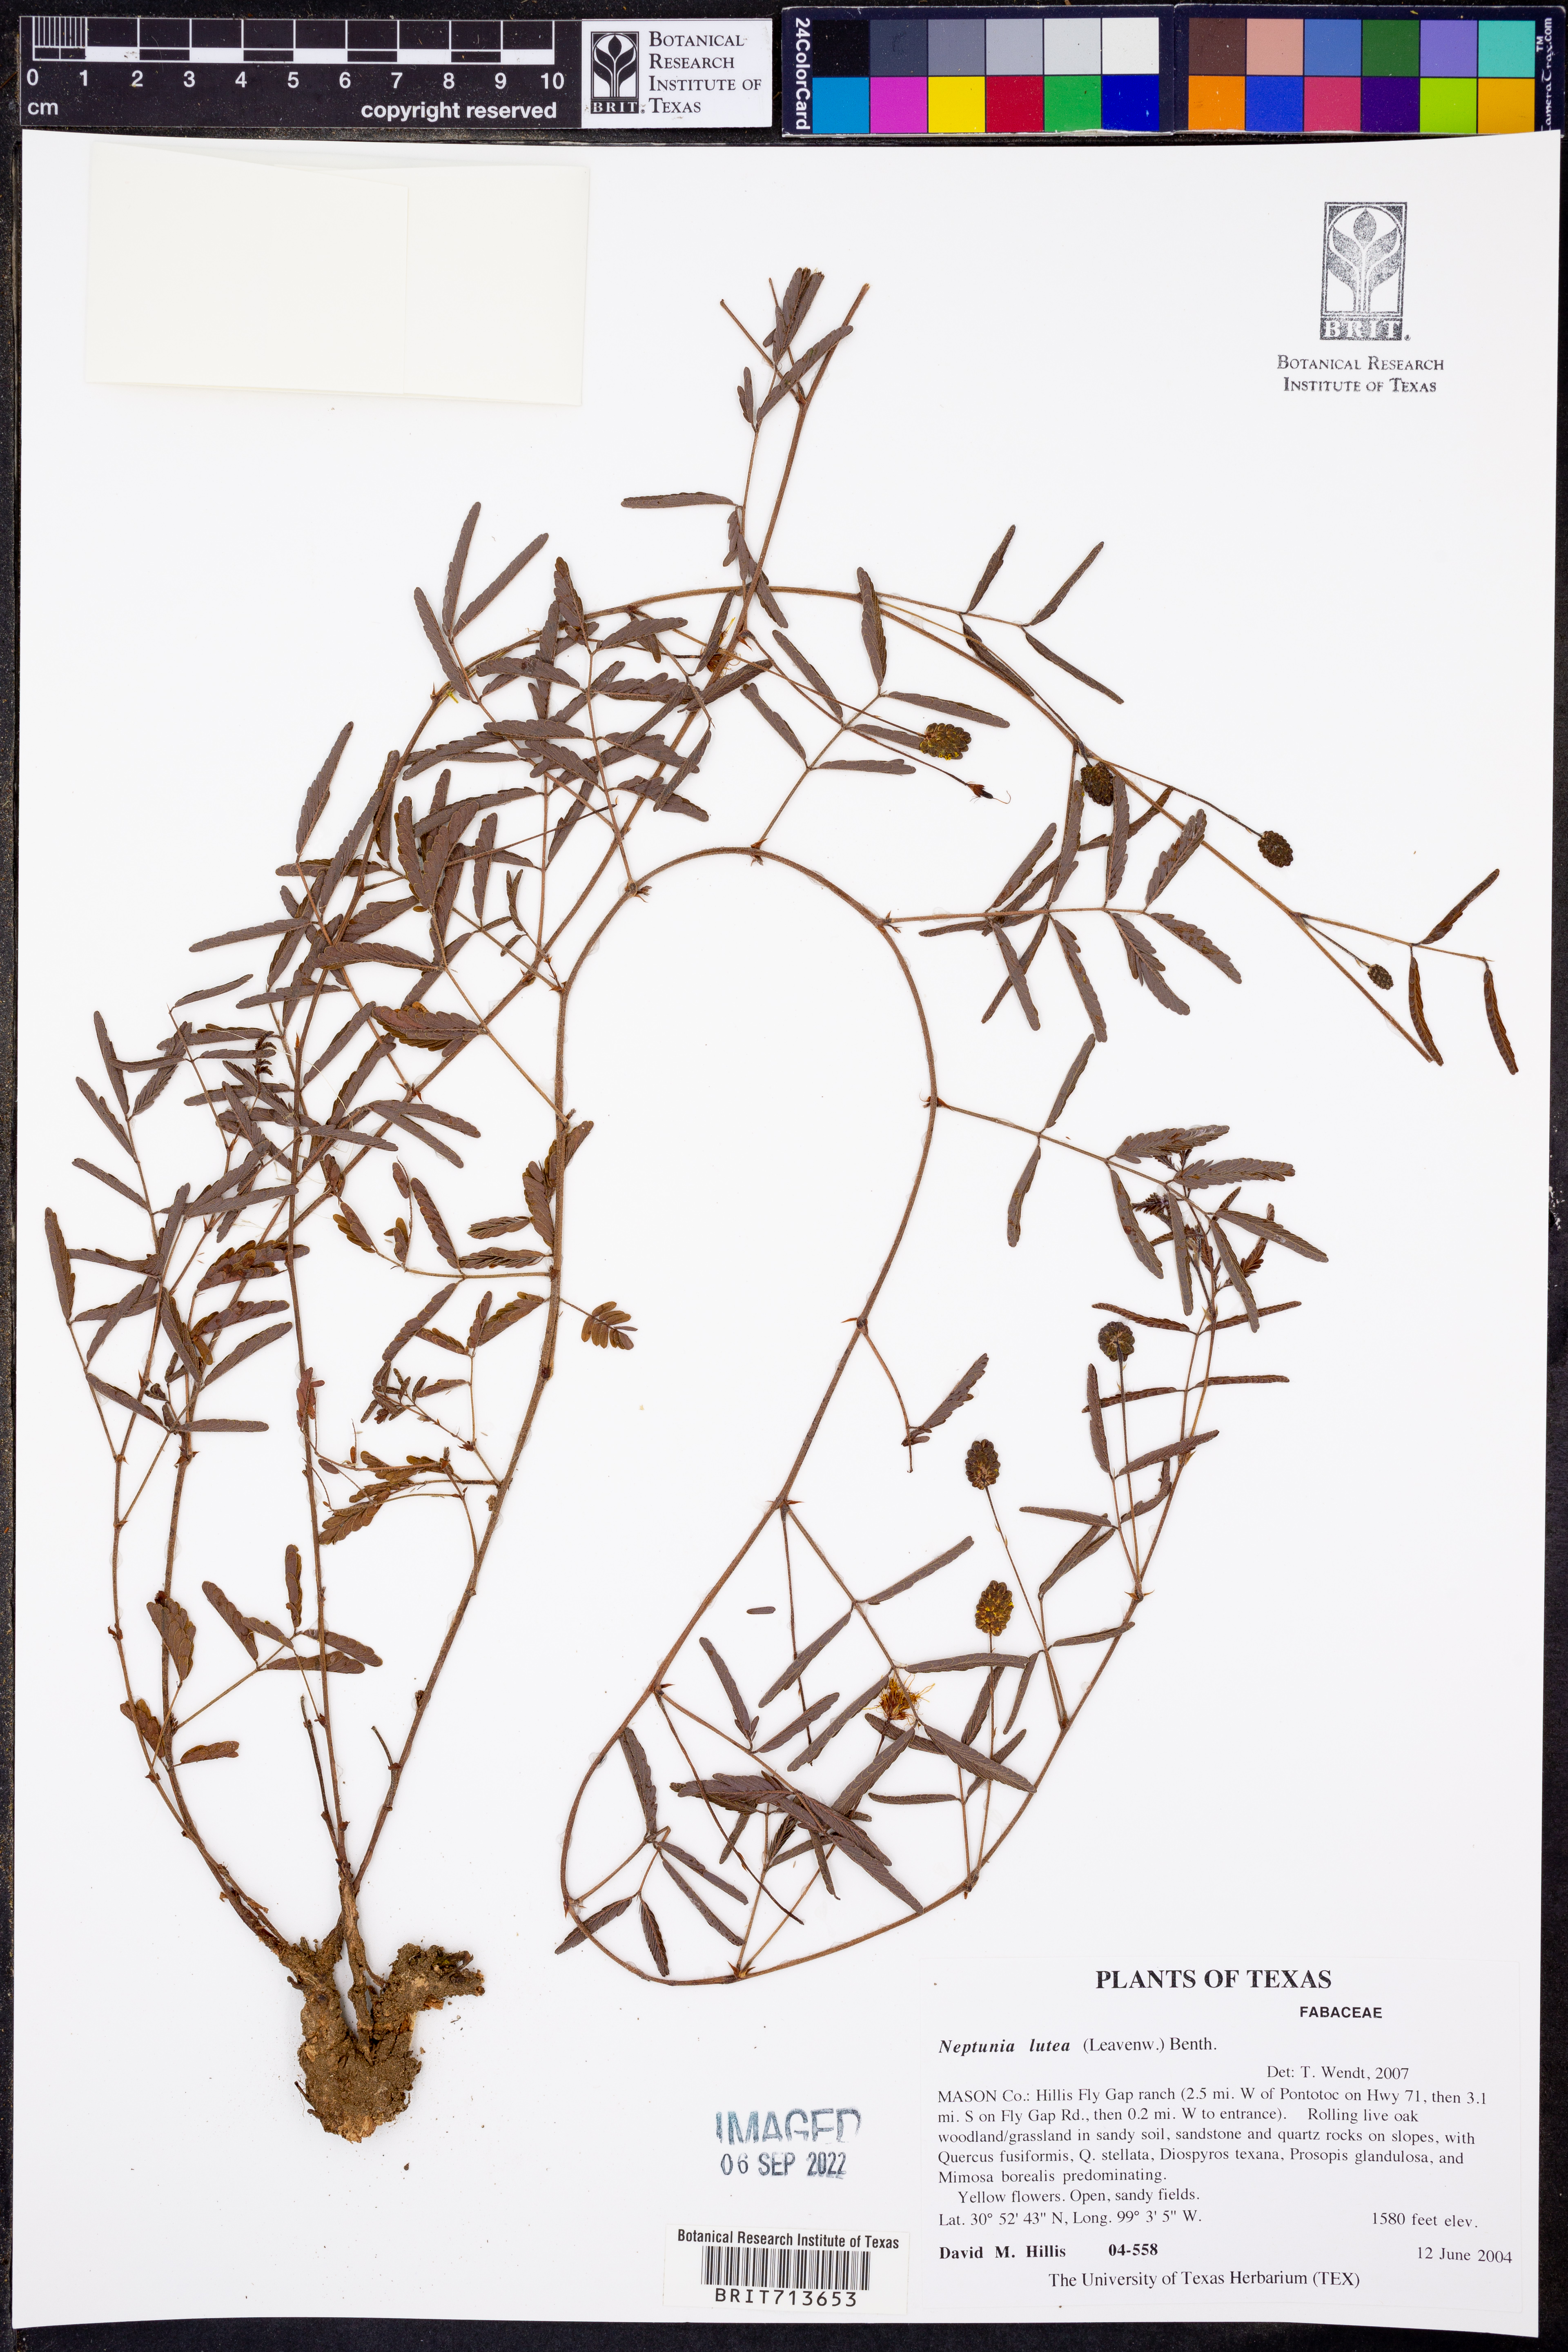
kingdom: Plantae
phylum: Tracheophyta
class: Magnoliopsida
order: Fabales
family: Fabaceae
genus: Neptunia
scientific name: Neptunia lutea
